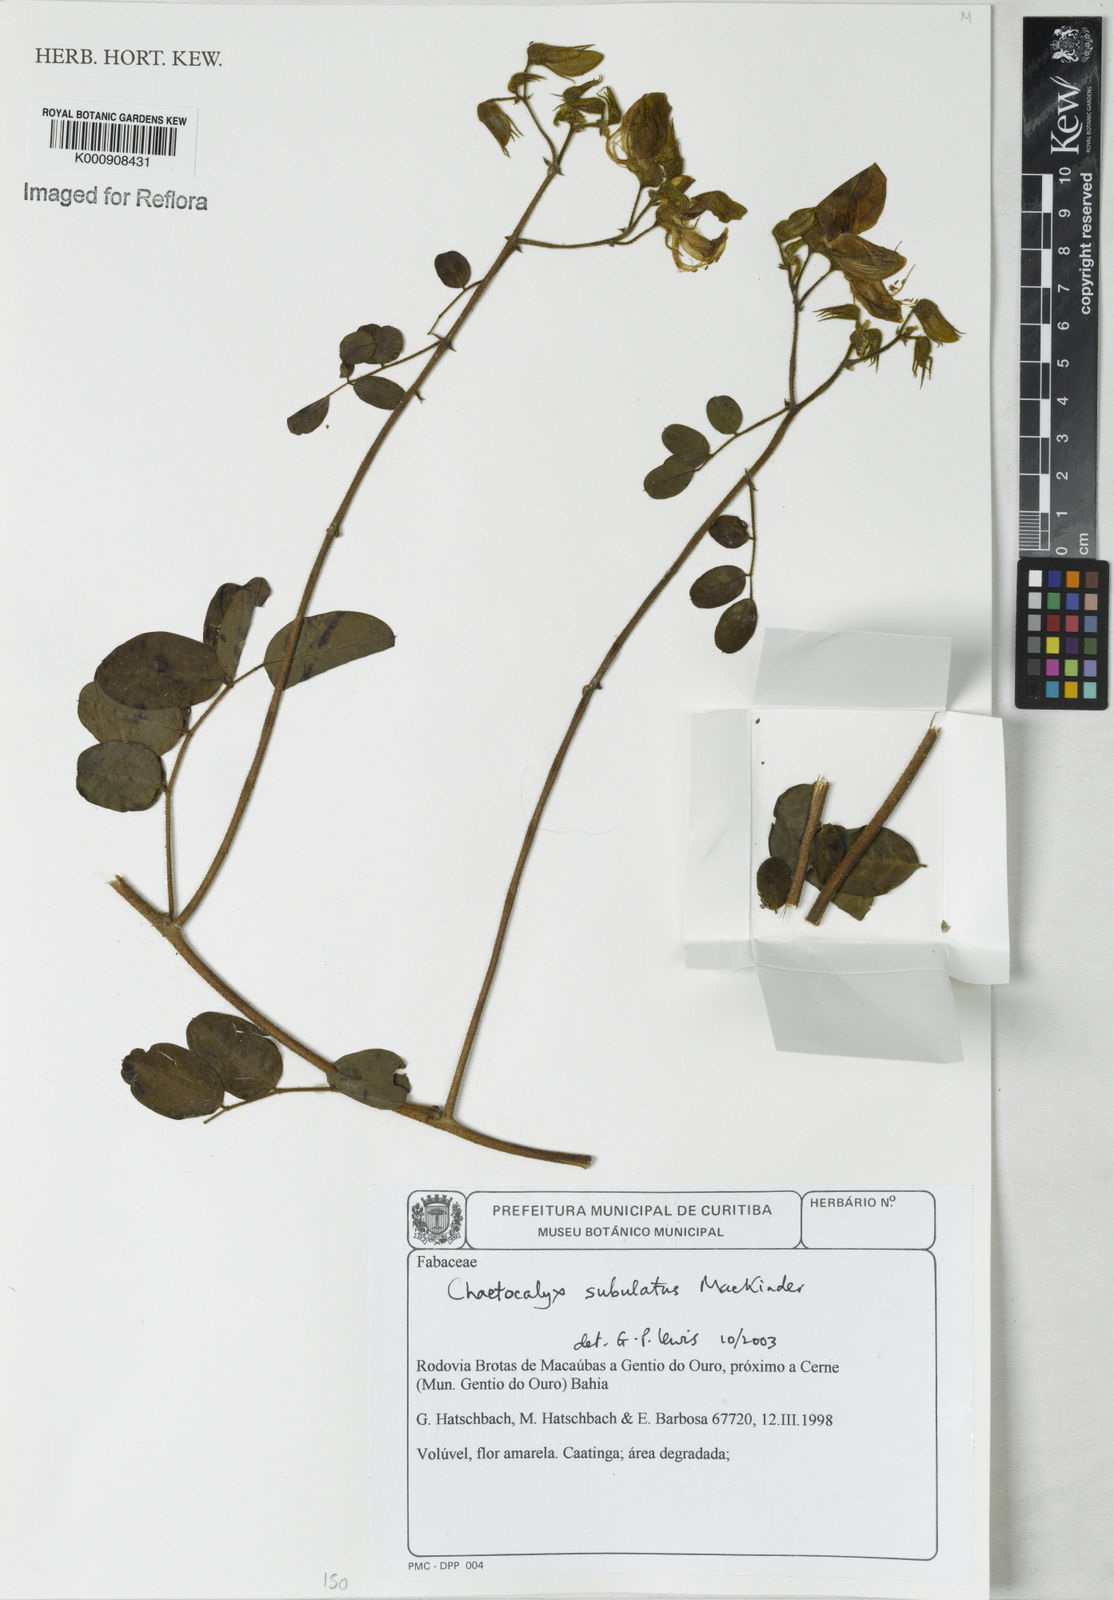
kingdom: Plantae
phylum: Tracheophyta
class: Magnoliopsida
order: Fabales
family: Fabaceae
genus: Nissolia
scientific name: Nissolia subulata
